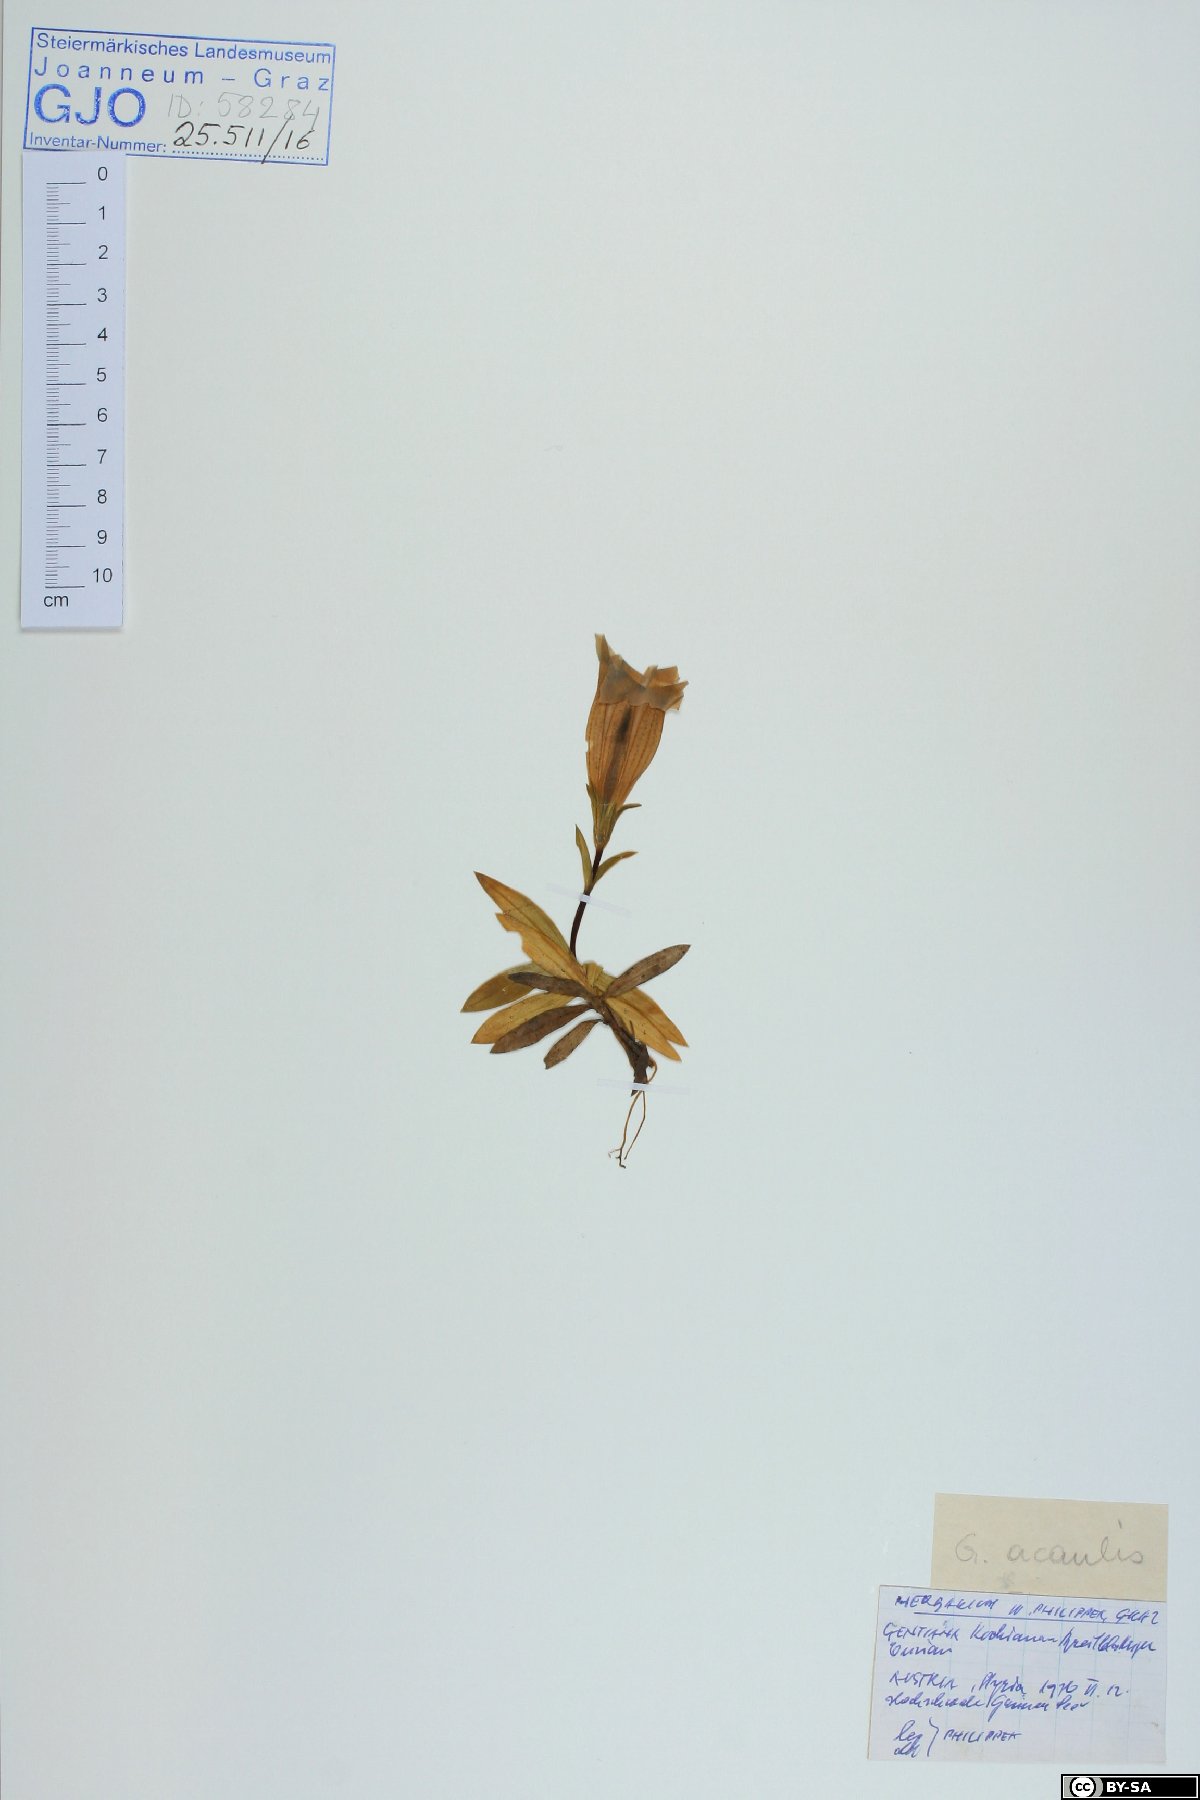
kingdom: Plantae
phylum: Tracheophyta
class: Magnoliopsida
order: Gentianales
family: Gentianaceae
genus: Gentiana
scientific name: Gentiana clusii
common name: Trumpet gentian
